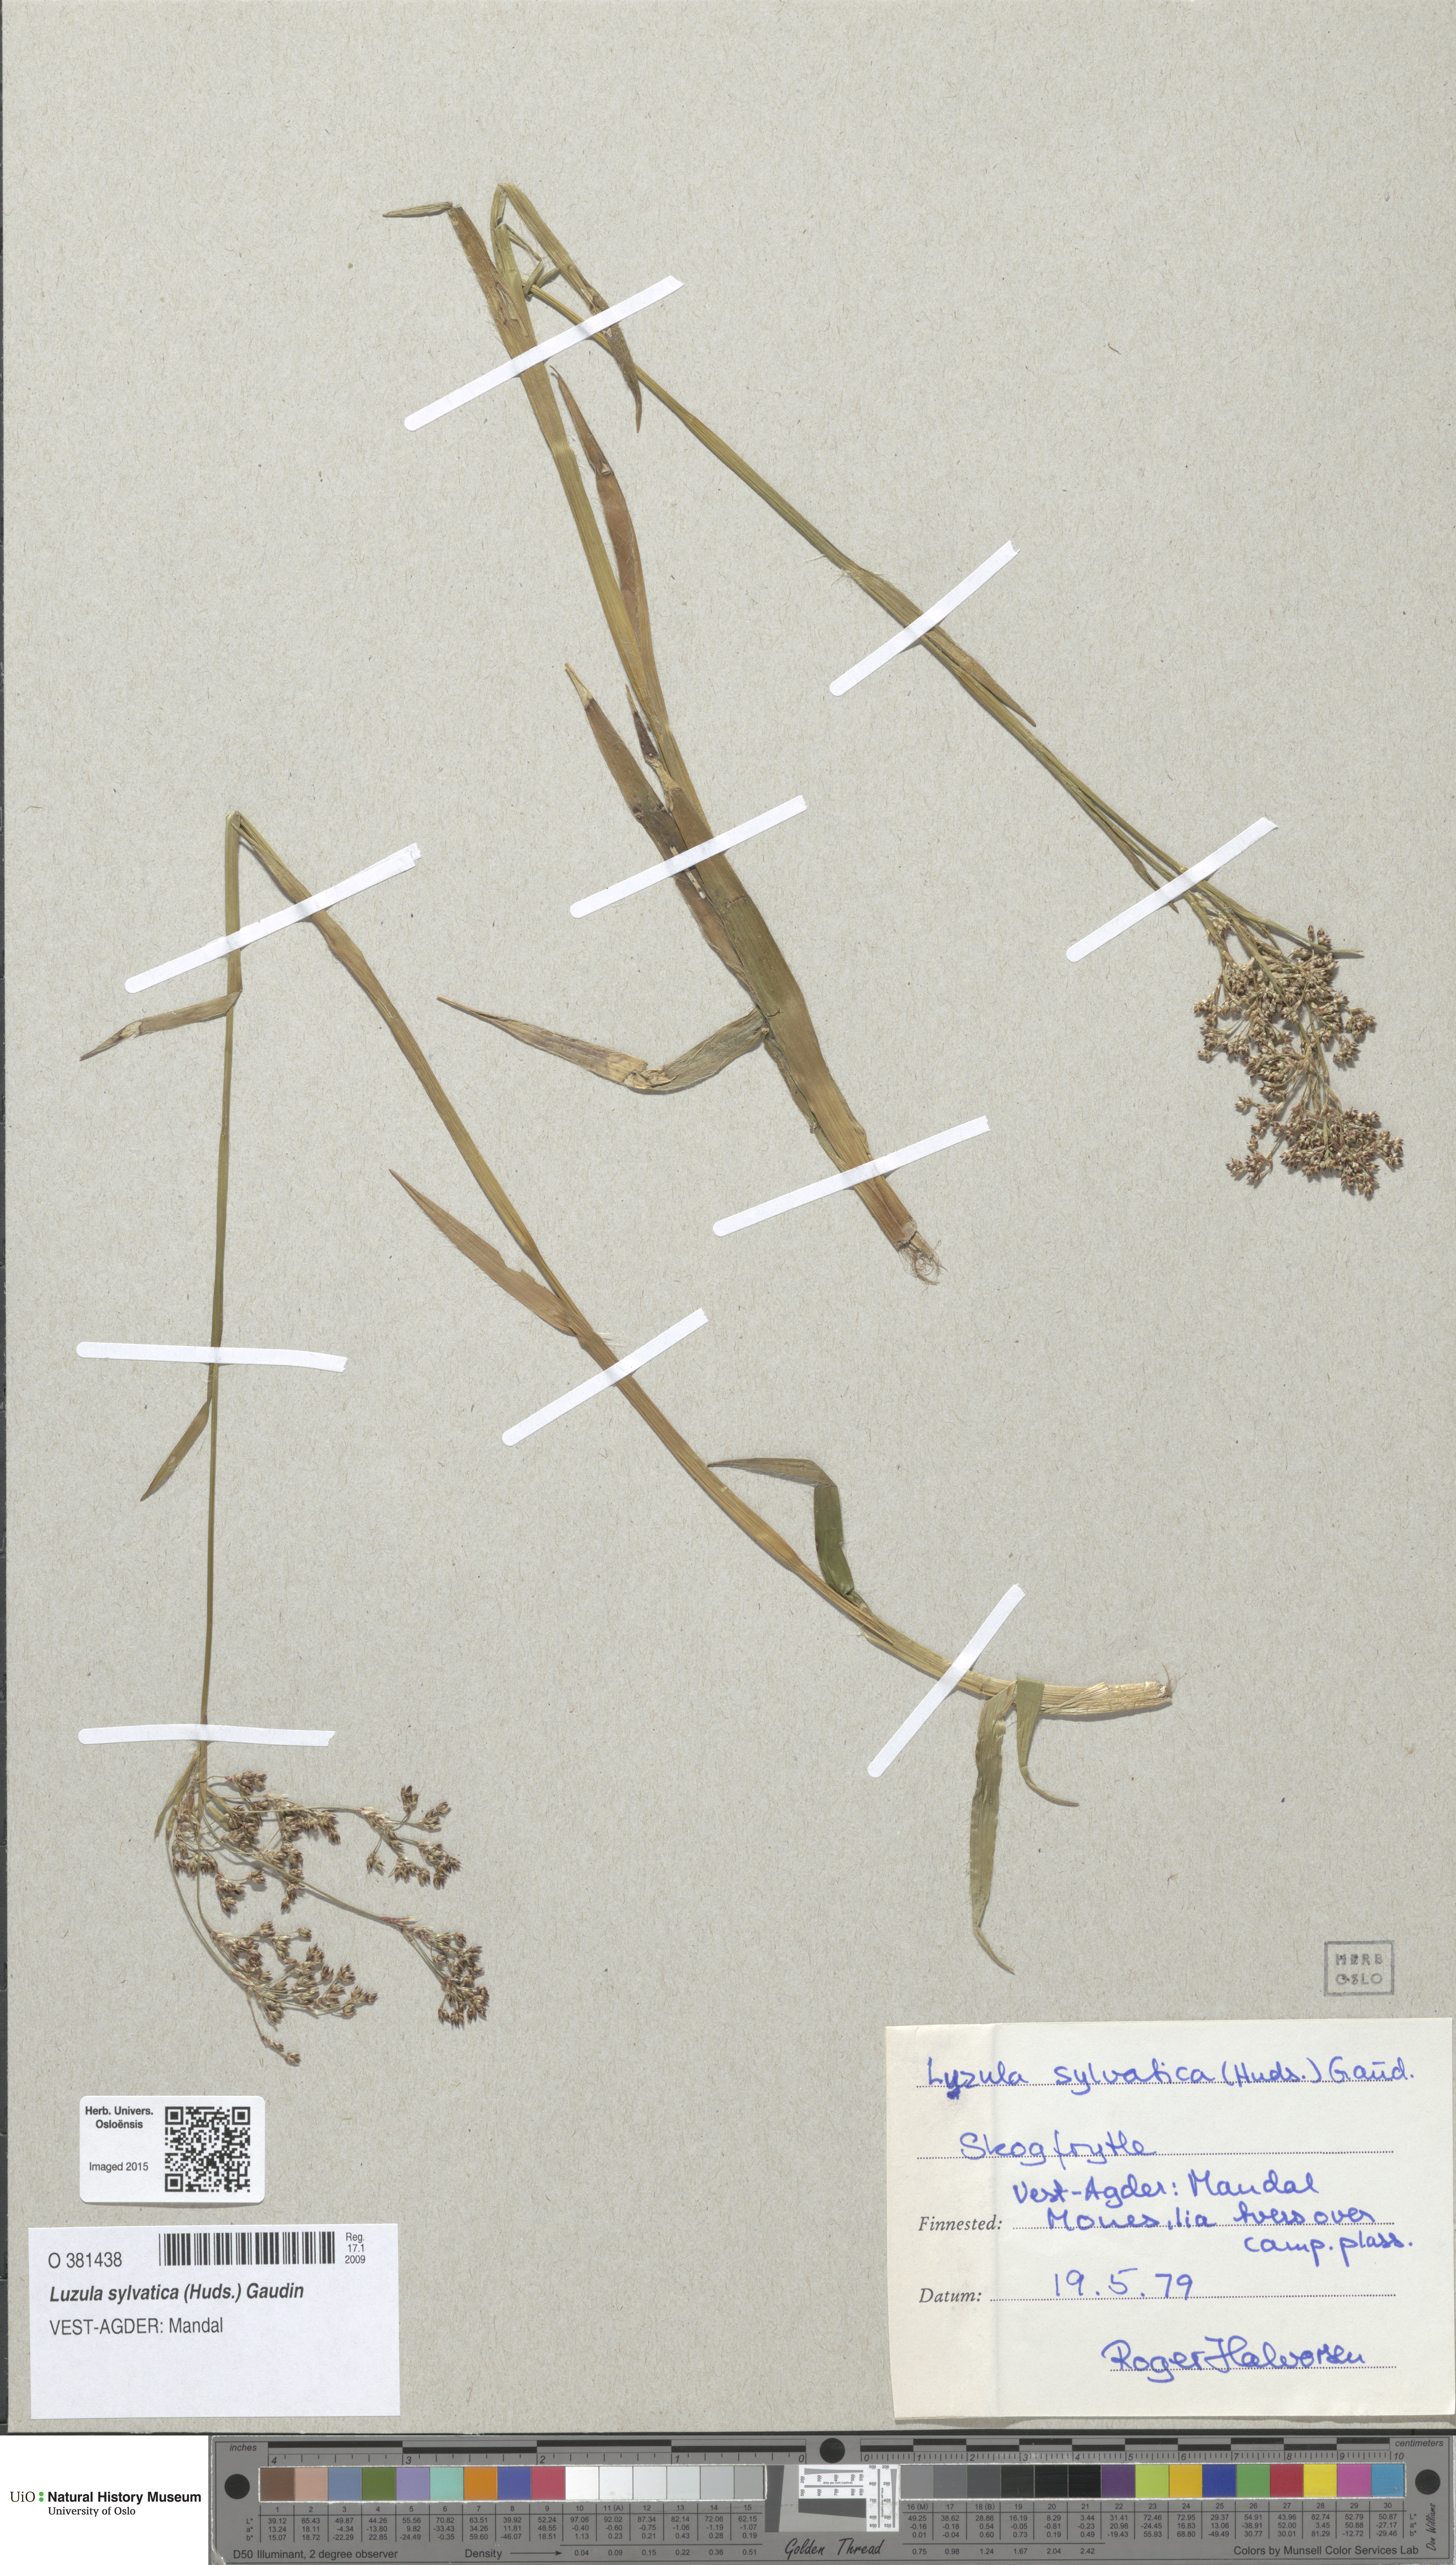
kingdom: Plantae
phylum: Tracheophyta
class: Liliopsida
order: Poales
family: Juncaceae
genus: Luzula
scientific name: Luzula sylvatica
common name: Great wood-rush
